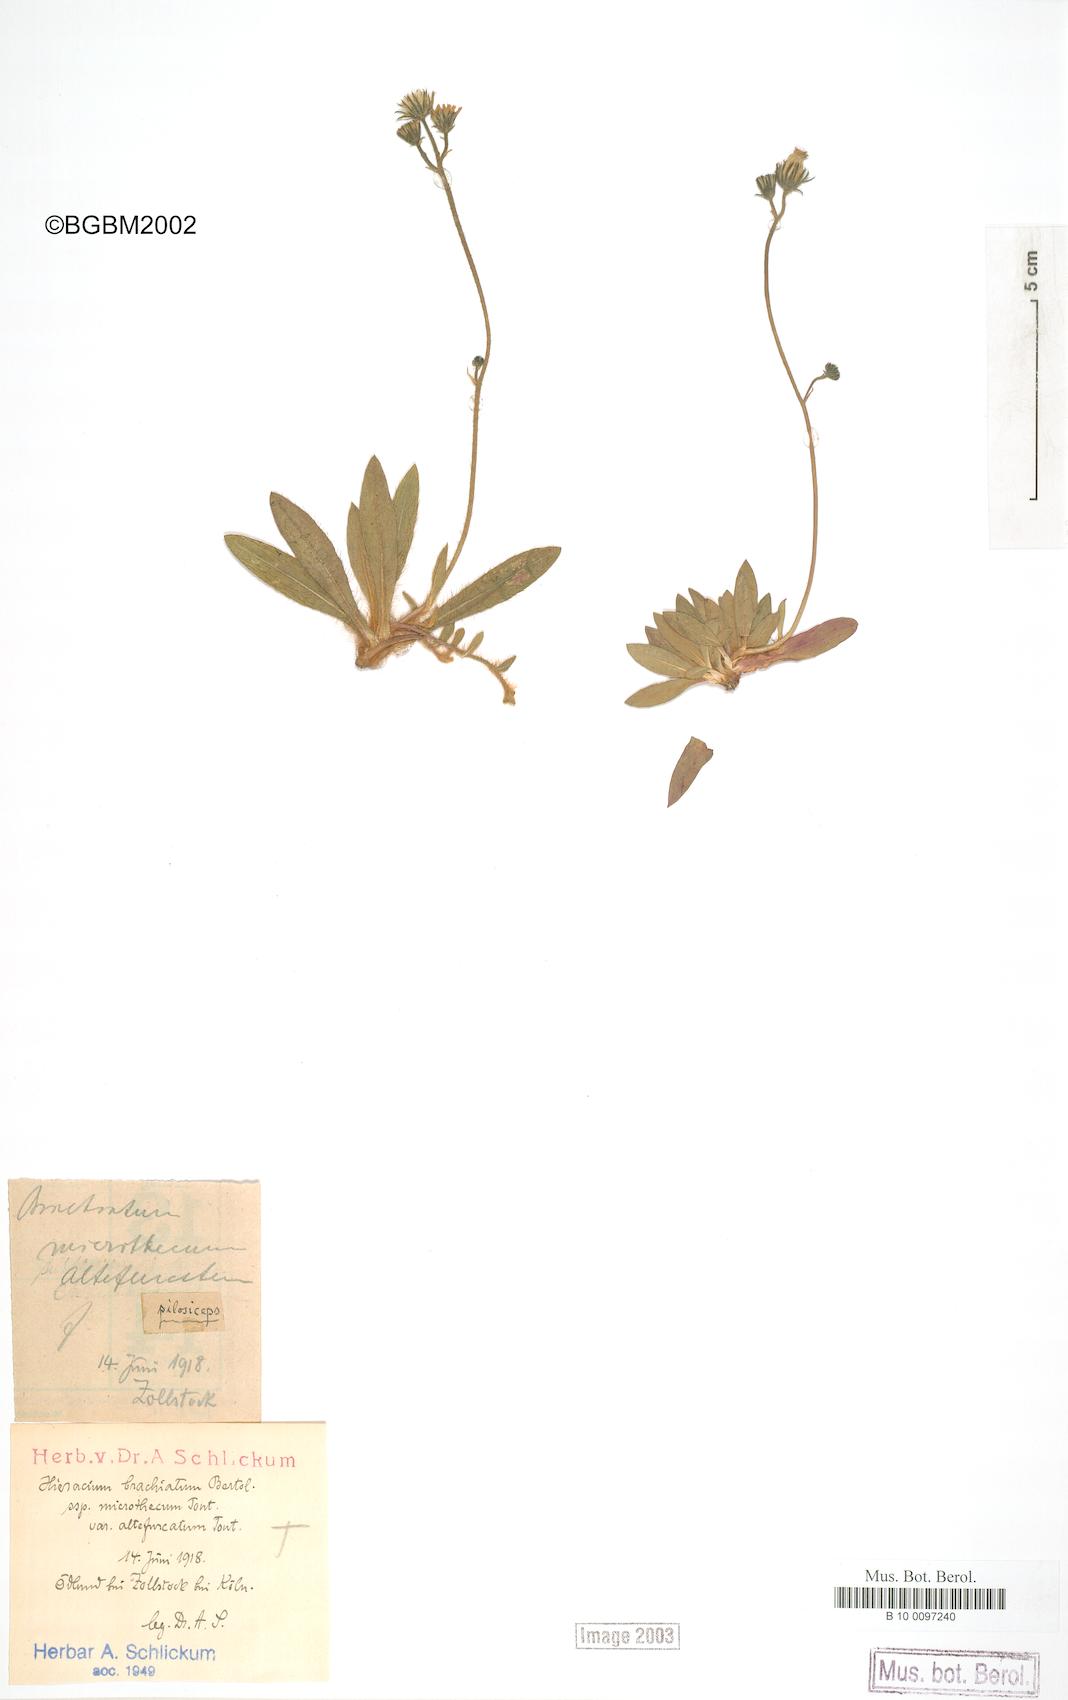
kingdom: Plantae
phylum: Tracheophyta
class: Magnoliopsida
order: Asterales
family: Asteraceae
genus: Pilosella
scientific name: Pilosella acutifolia
